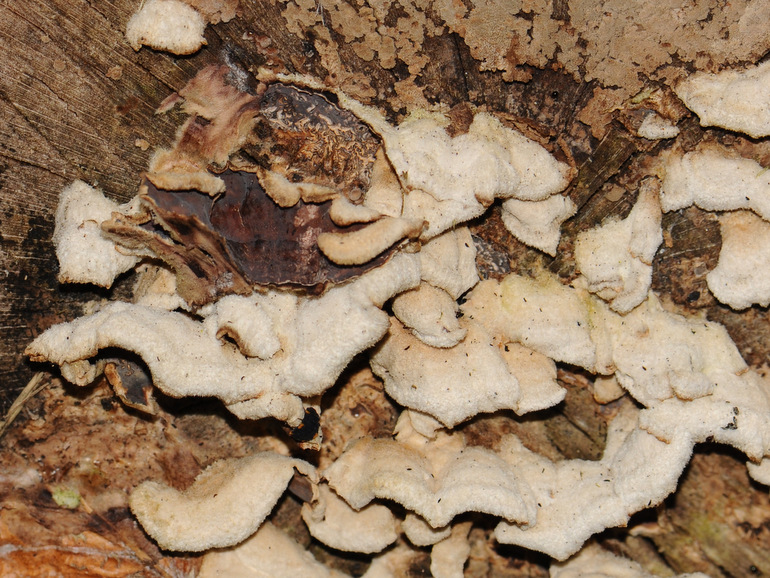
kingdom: Fungi
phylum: Basidiomycota
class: Agaricomycetes
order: Agaricales
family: Cyphellaceae
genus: Chondrostereum
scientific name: Chondrostereum purpureum
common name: purpurlædersvamp
